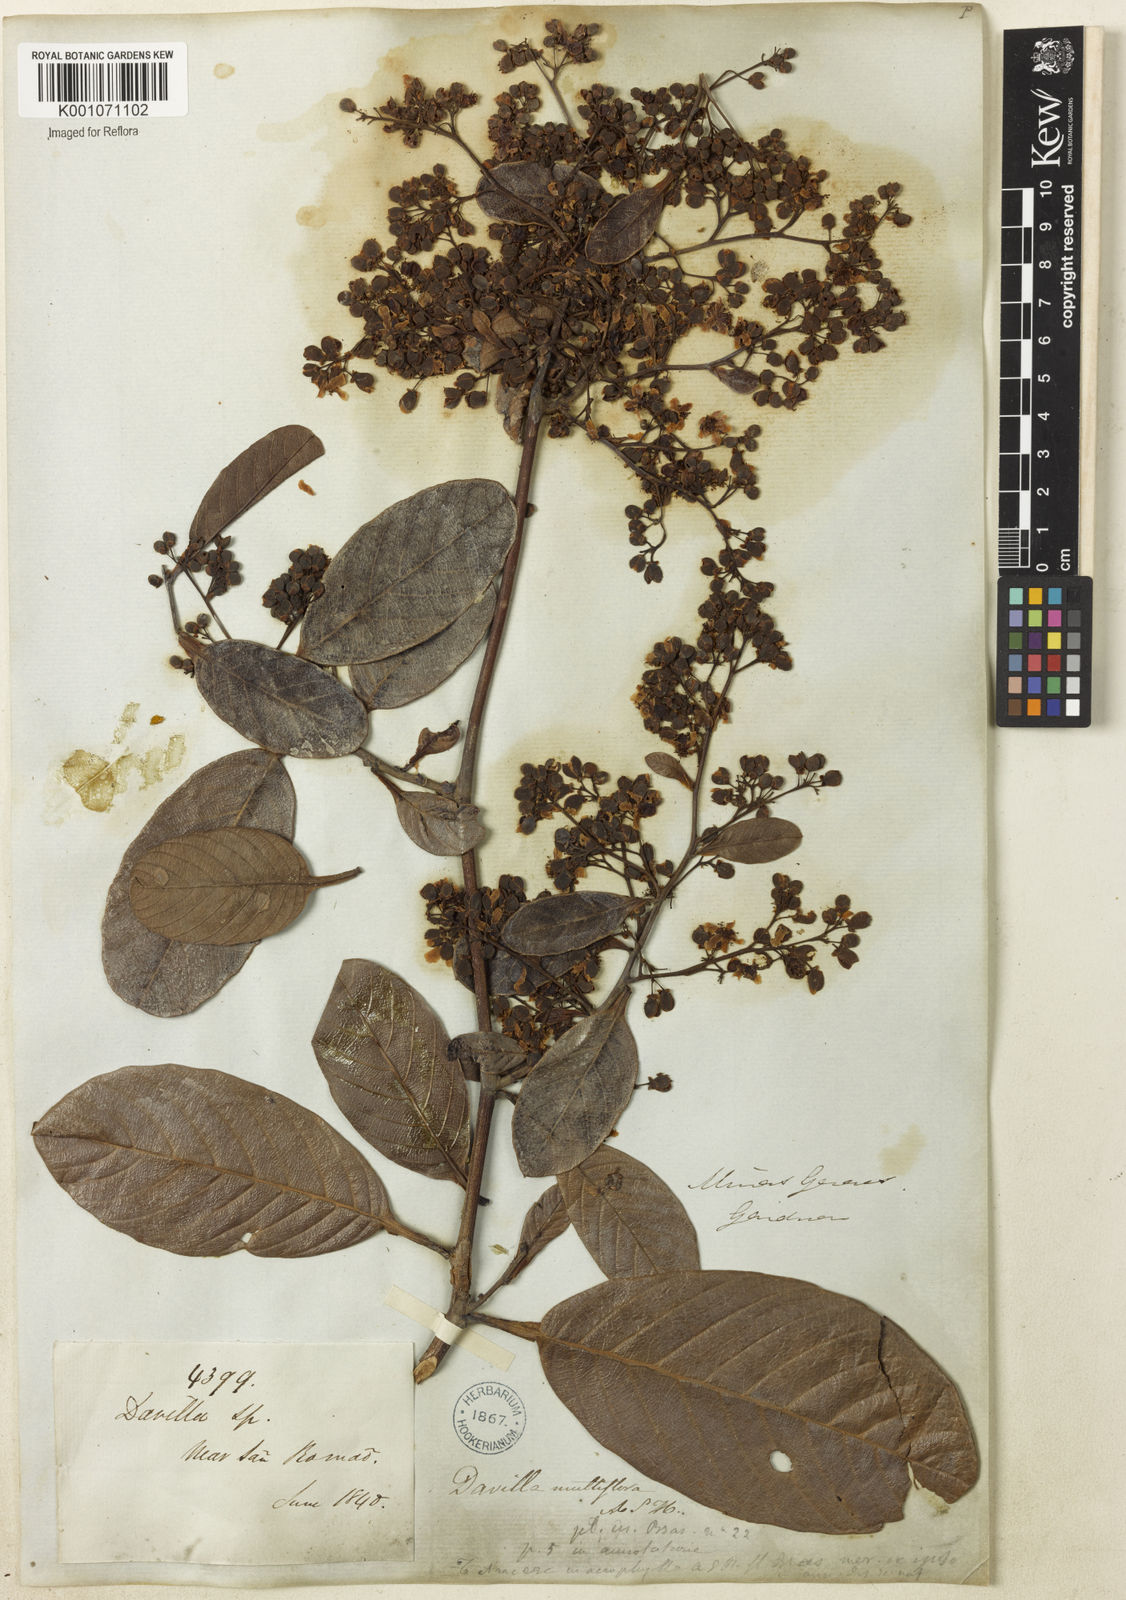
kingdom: Plantae
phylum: Tracheophyta
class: Magnoliopsida
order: Dilleniales
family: Dilleniaceae
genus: Davilla
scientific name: Davilla nitida
